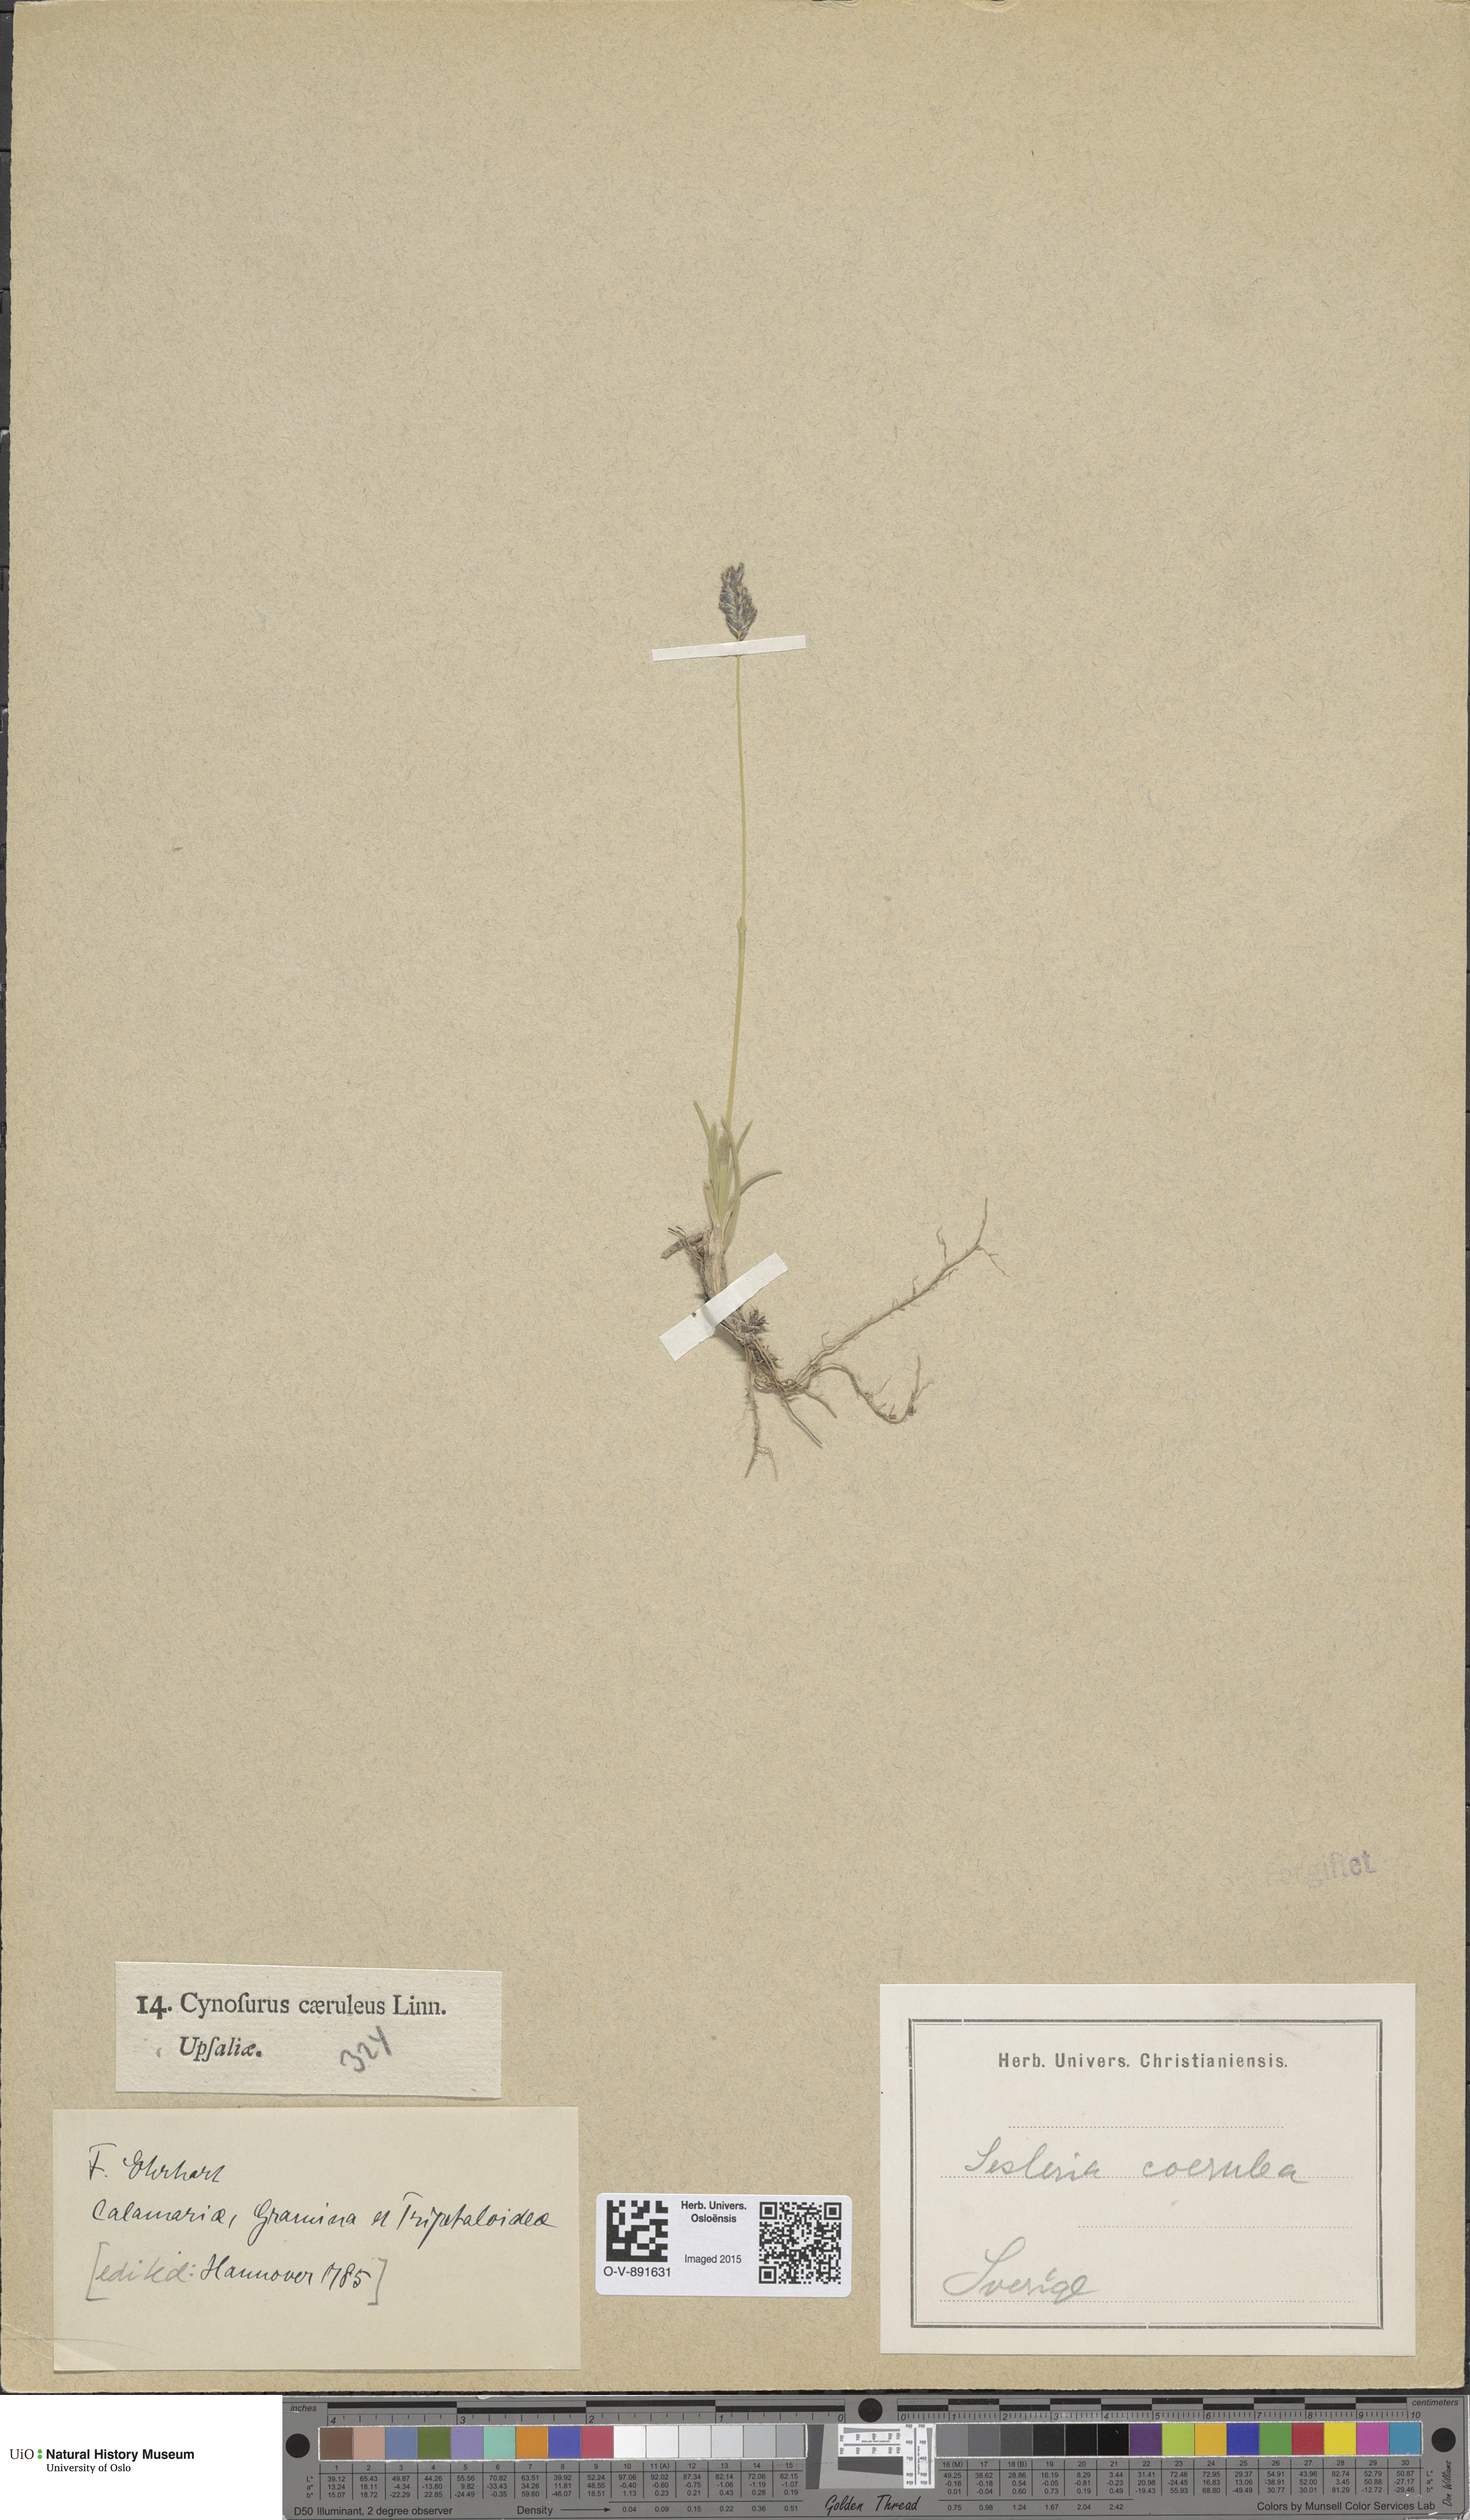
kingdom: Plantae
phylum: Tracheophyta
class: Liliopsida
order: Poales
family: Poaceae
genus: Sesleria
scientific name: Sesleria uliginosa
